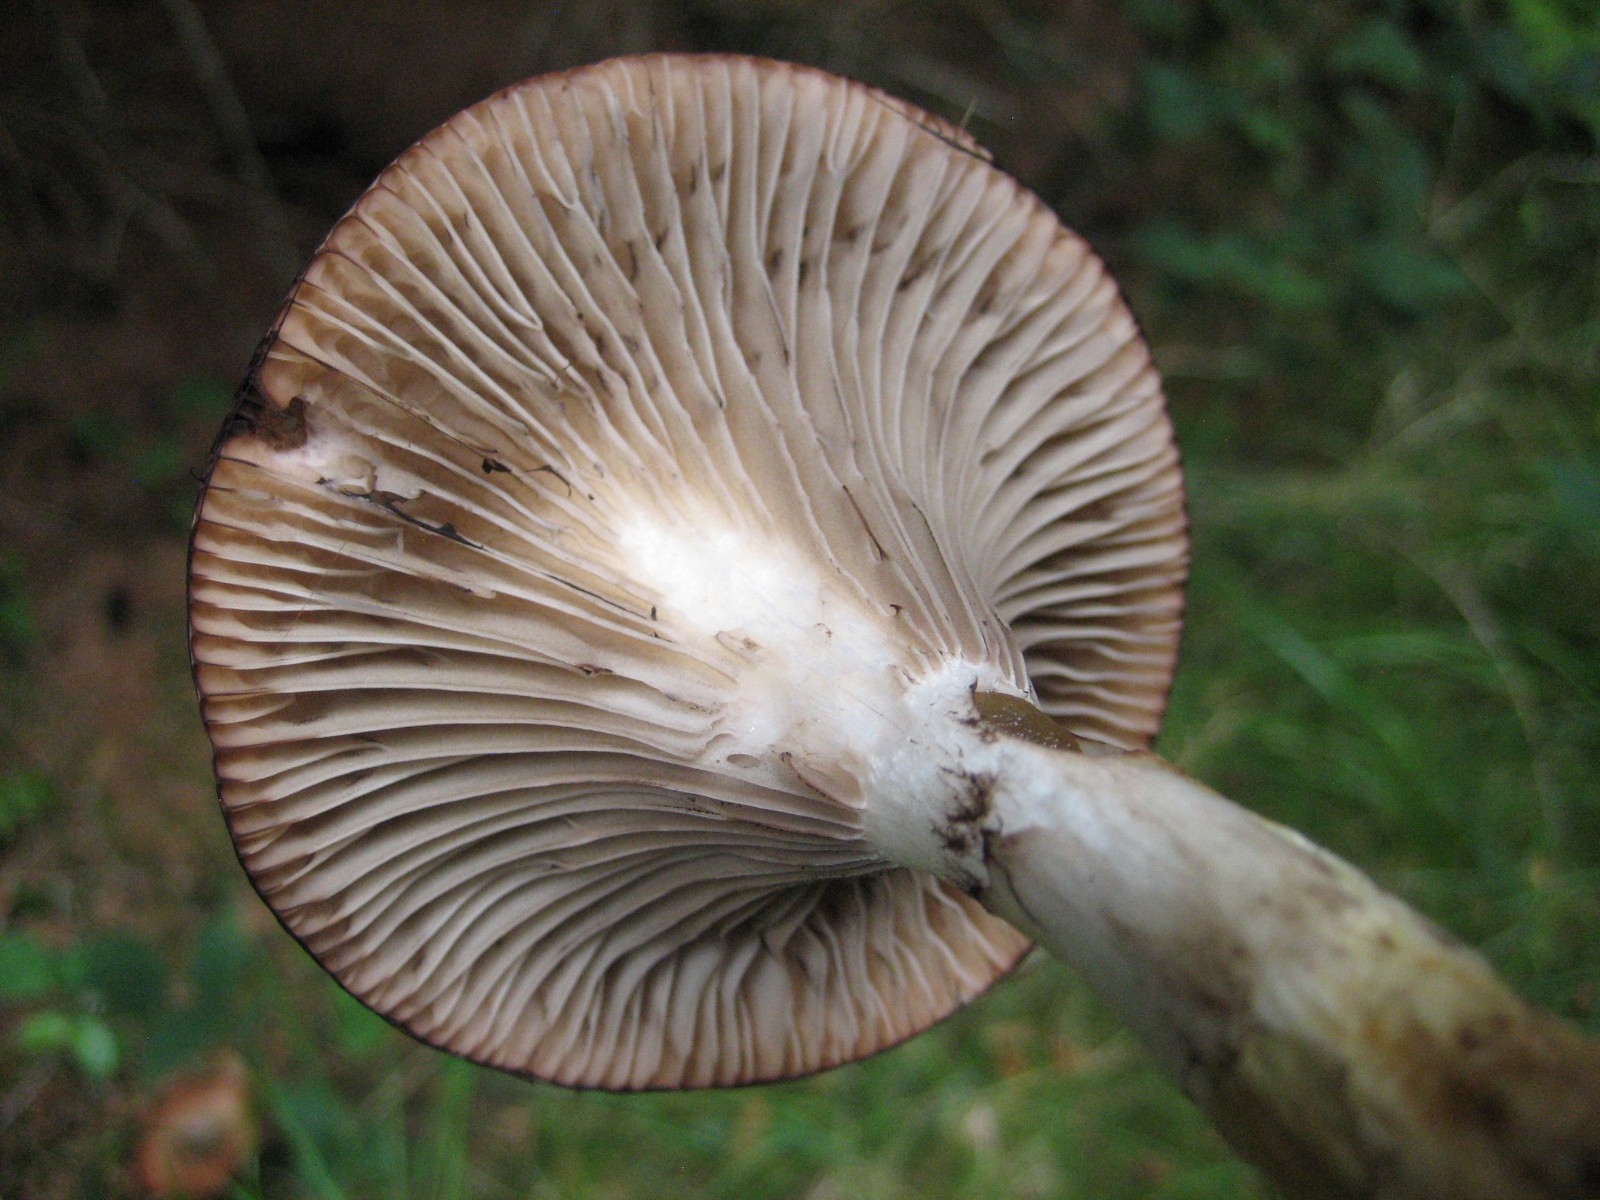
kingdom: Fungi
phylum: Basidiomycota
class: Agaricomycetes
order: Boletales
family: Gomphidiaceae
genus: Gomphidius
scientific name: Gomphidius glutinosus
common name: grå slimslør
